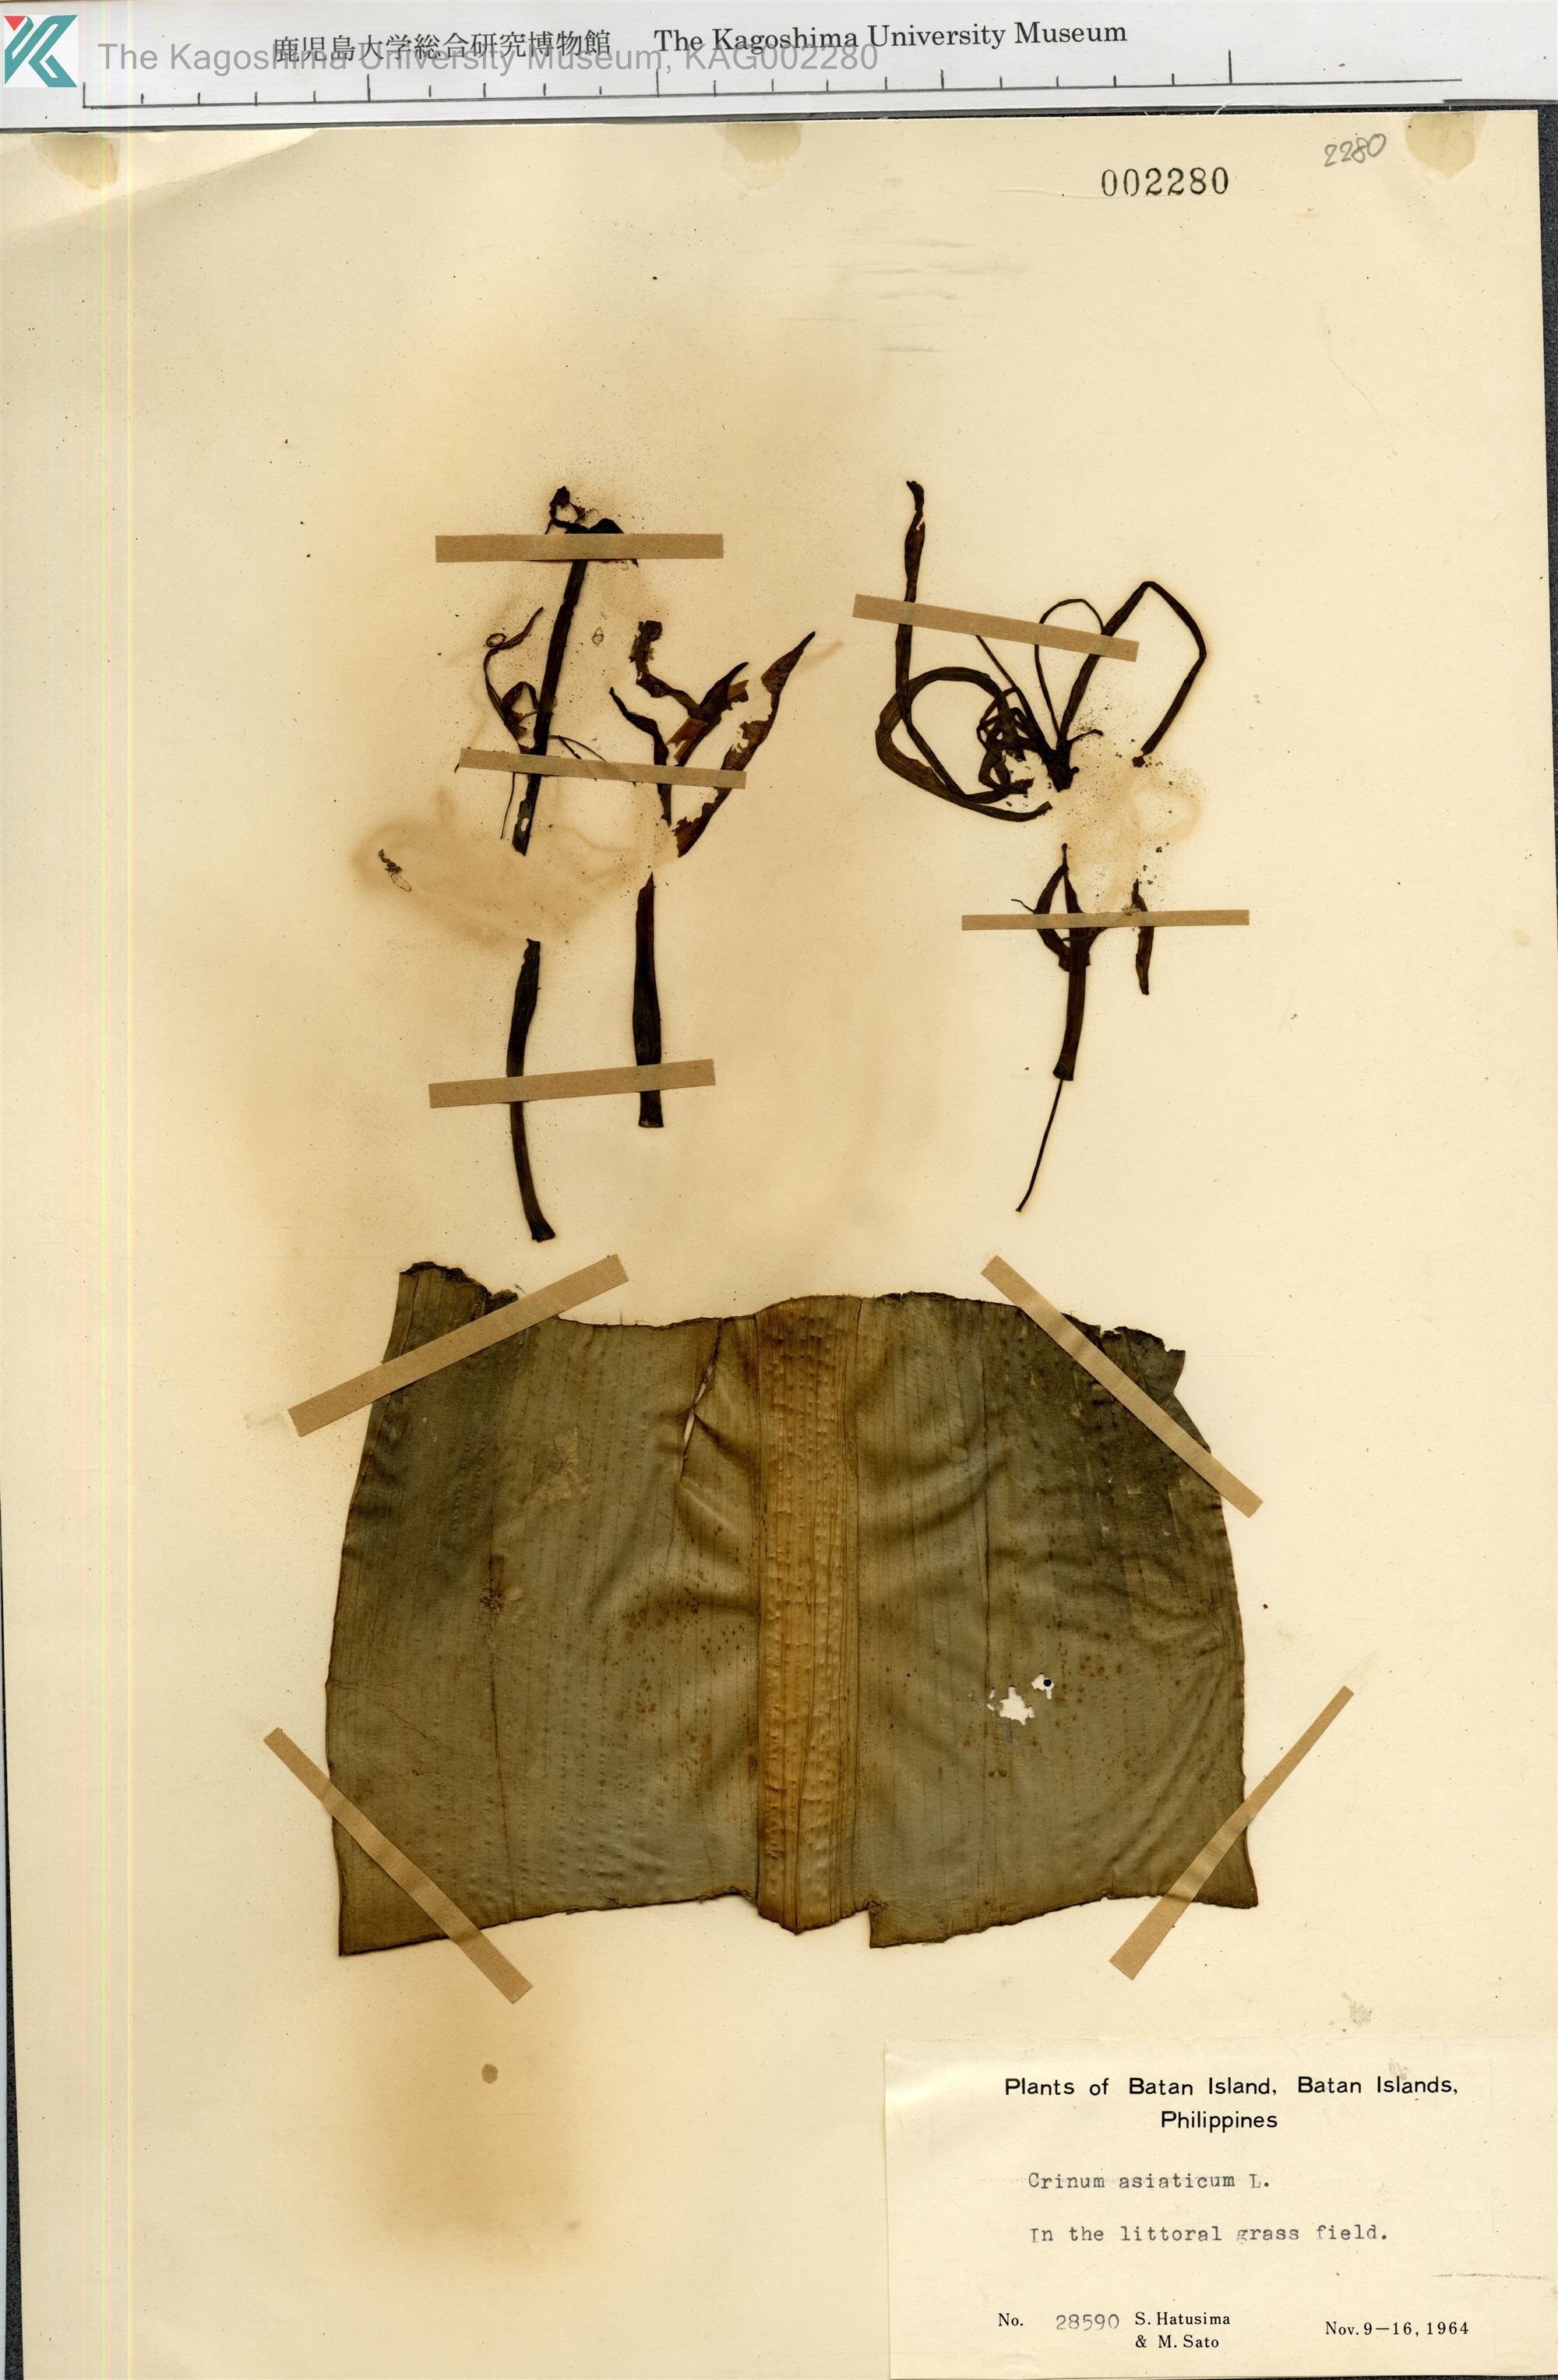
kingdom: Plantae
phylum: Tracheophyta
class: Liliopsida
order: Asparagales
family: Amaryllidaceae
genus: Crinum
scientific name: Crinum asiaticum
